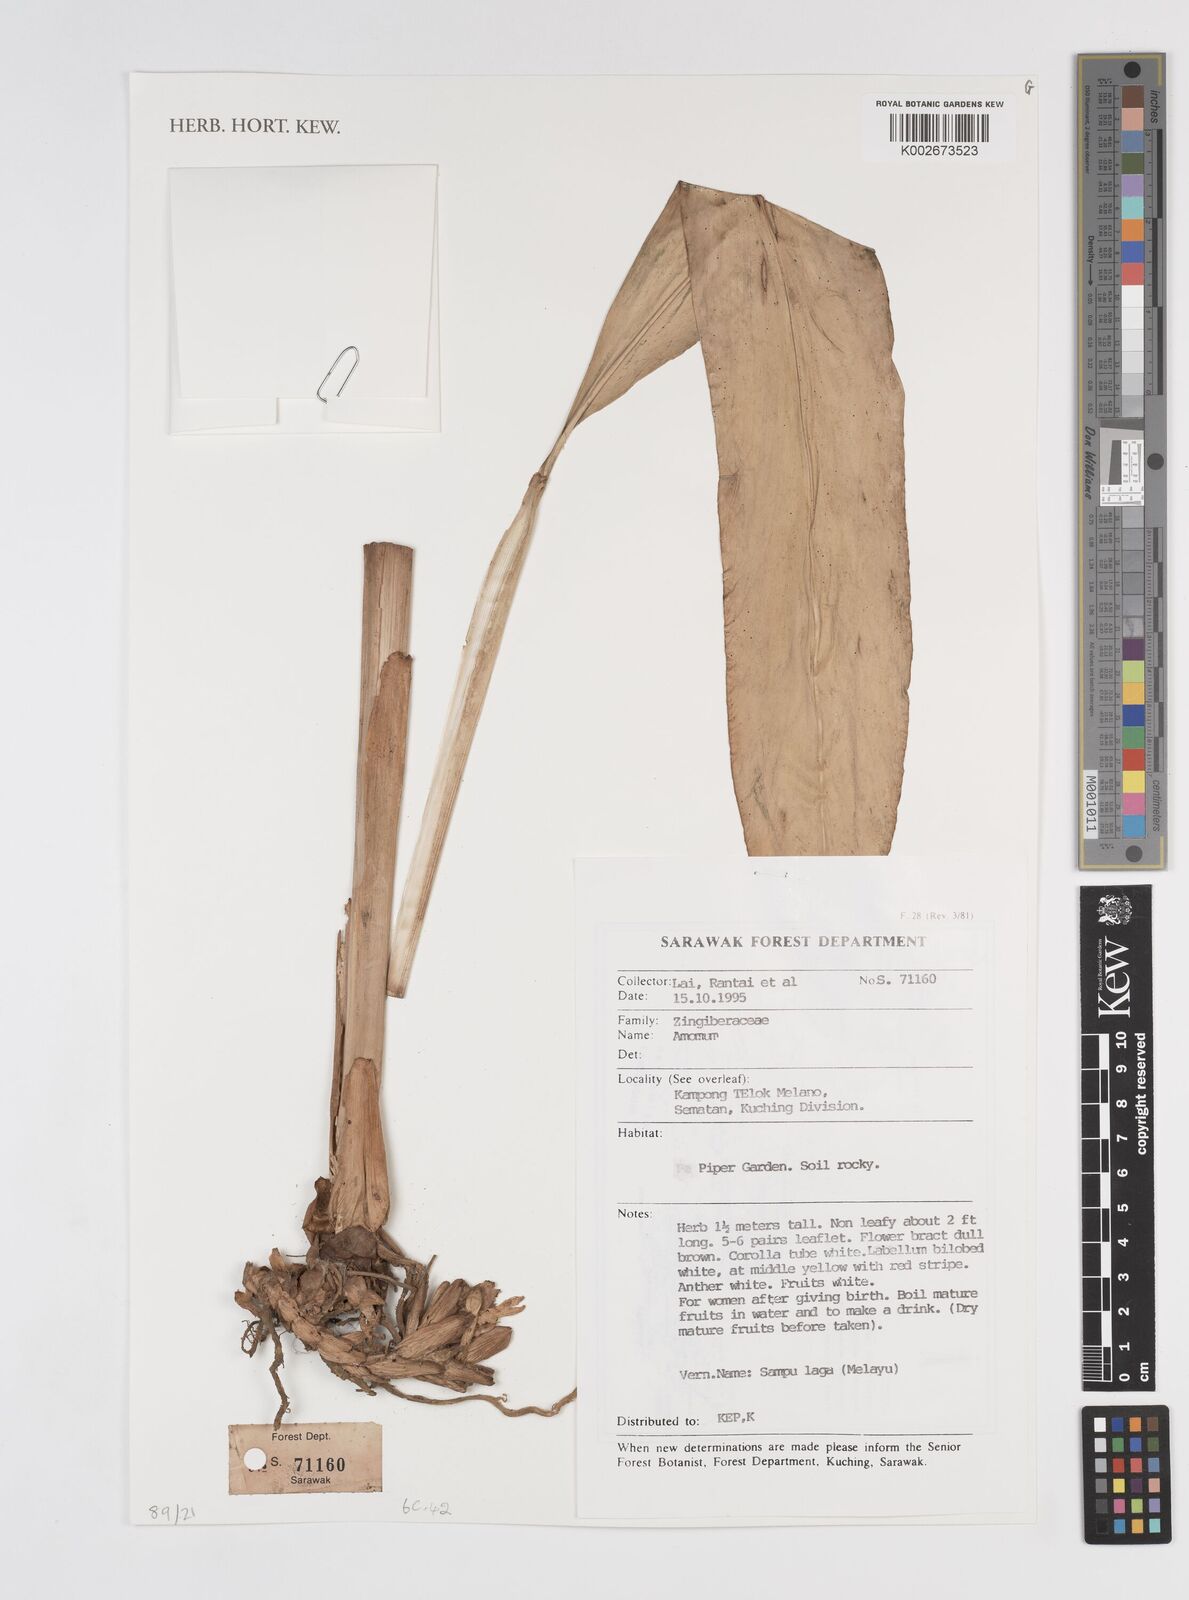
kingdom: Plantae
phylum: Tracheophyta
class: Liliopsida
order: Zingiberales
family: Zingiberaceae
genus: Amomum
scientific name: Amomum
